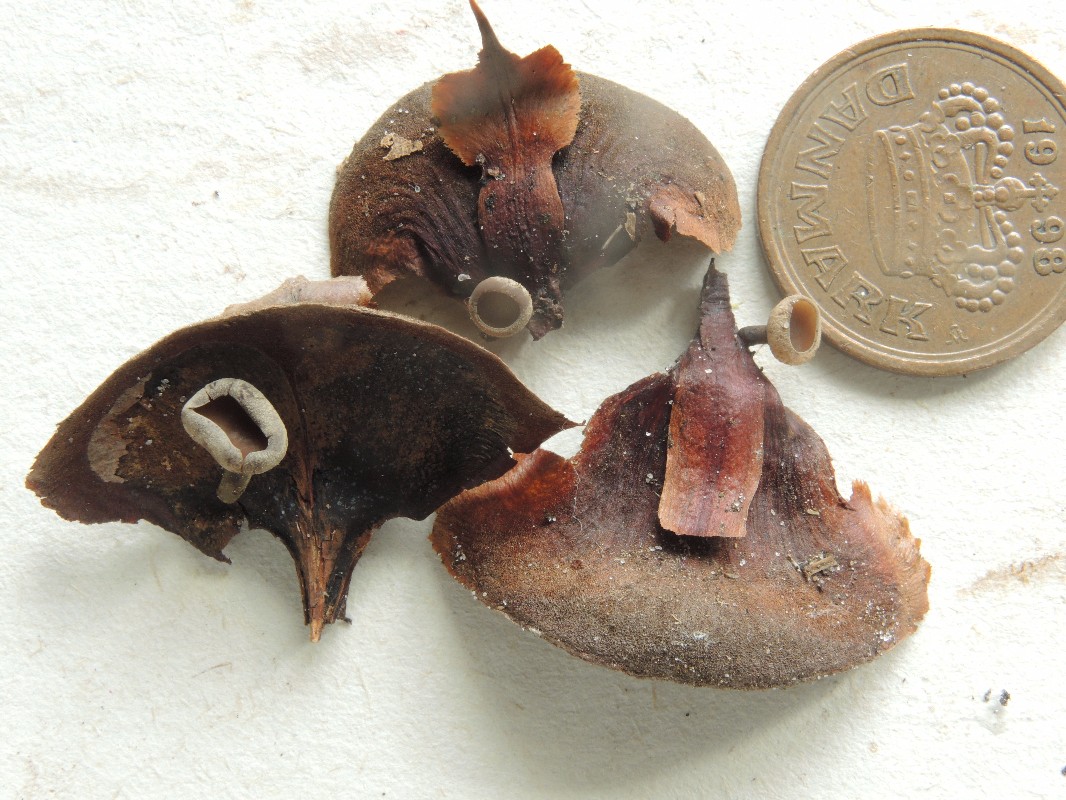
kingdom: Fungi
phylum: Ascomycota
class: Leotiomycetes
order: Helotiales
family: Sclerotiniaceae
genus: Ciboria
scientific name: Ciboria rufofusca
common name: kogleskæl-knoldskive
